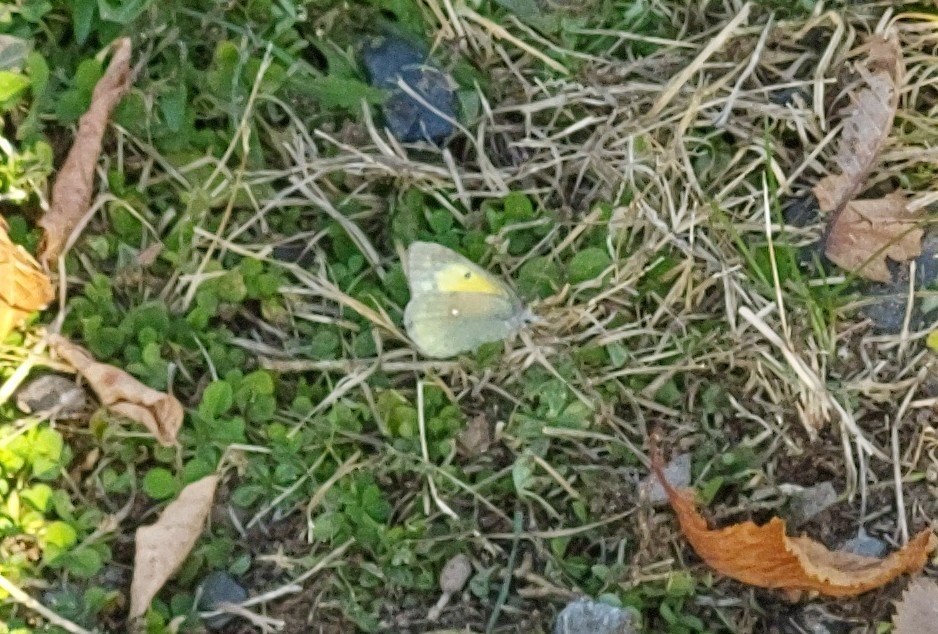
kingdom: Animalia
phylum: Arthropoda
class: Insecta
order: Lepidoptera
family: Pieridae
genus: Colias
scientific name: Colias eurytheme
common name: Orange Sulphur
